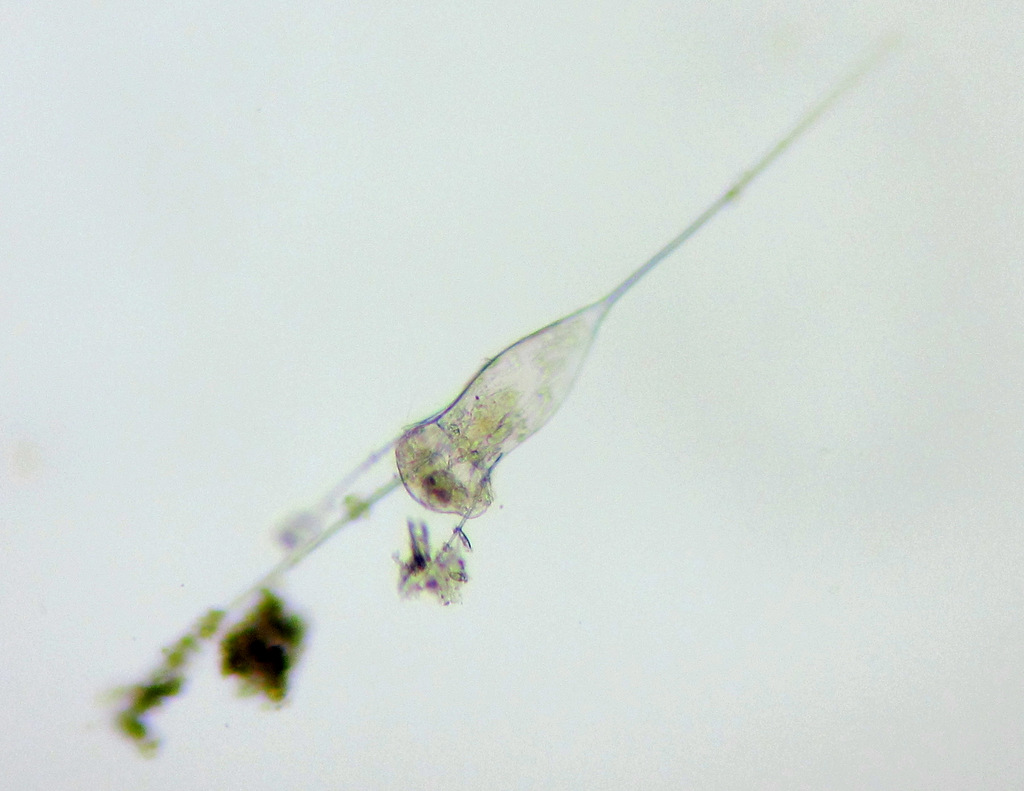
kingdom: Animalia
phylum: Rotifera
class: Eurotatoria
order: Ploima
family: Brachionidae
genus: Kellicottia
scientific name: Kellicottia longispina
